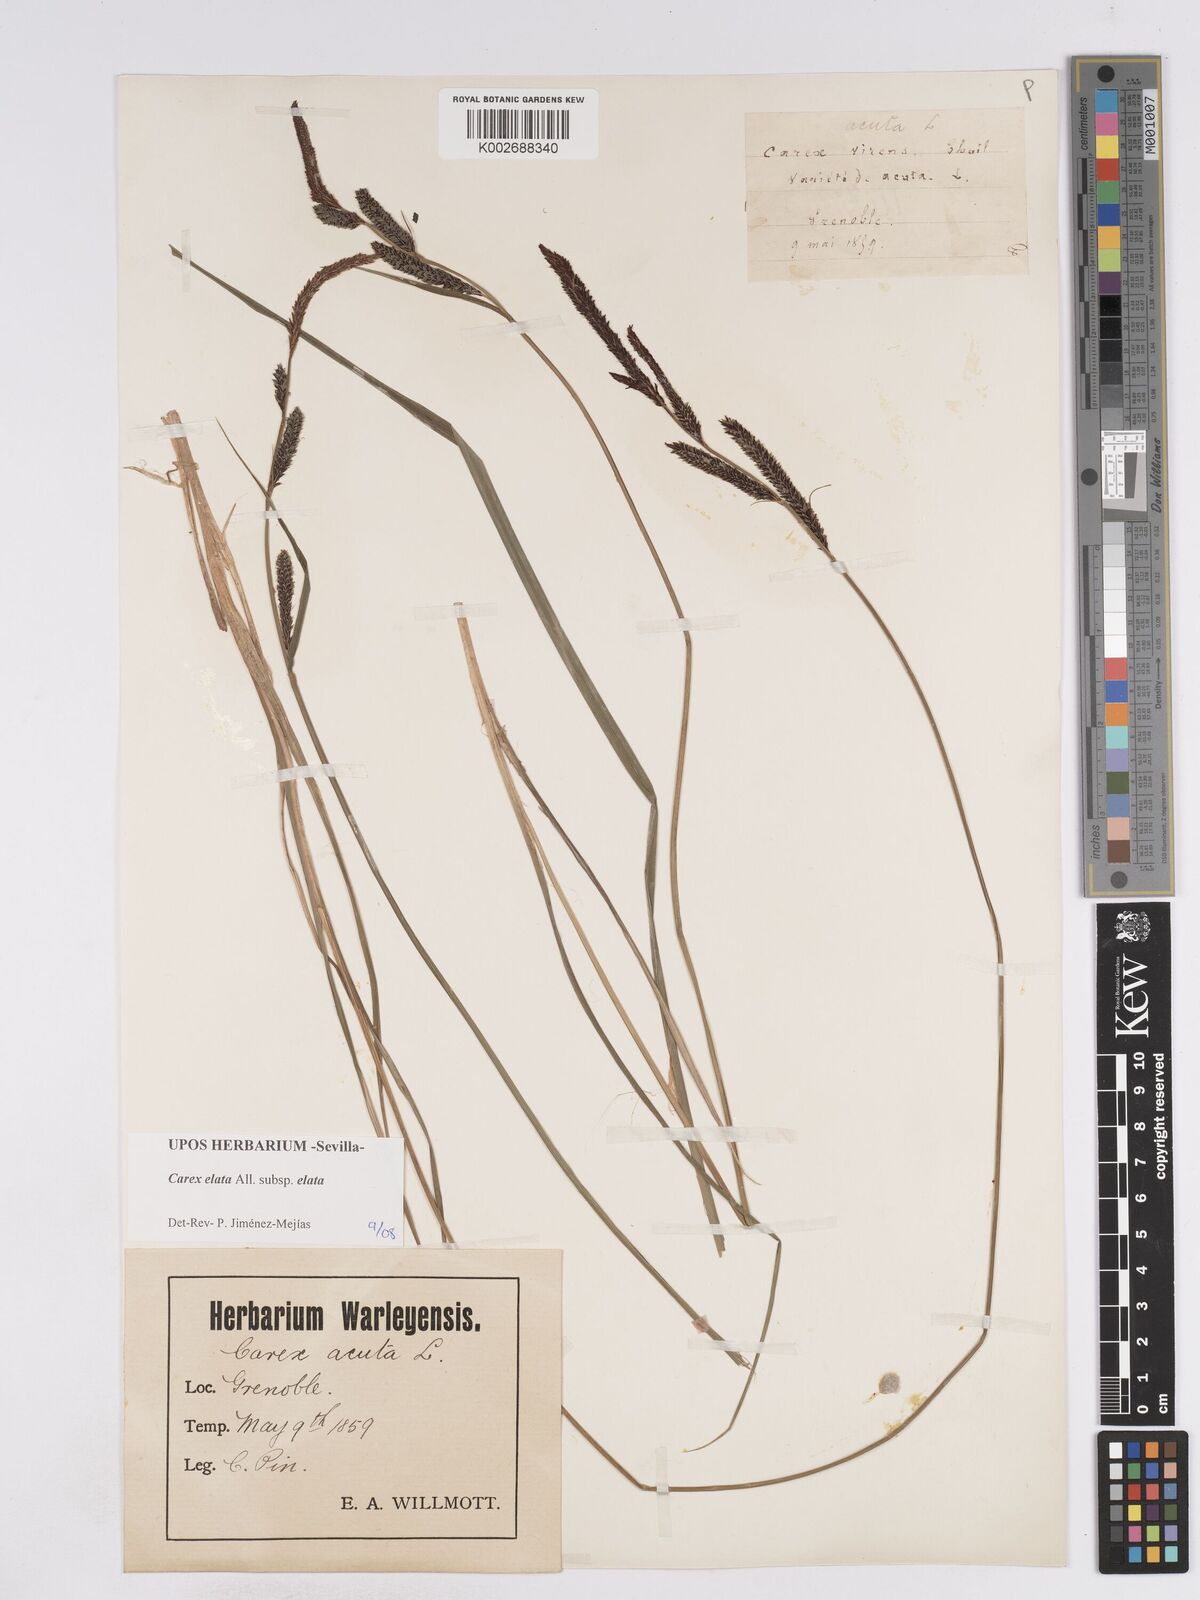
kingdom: Plantae
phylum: Tracheophyta
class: Liliopsida
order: Poales
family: Cyperaceae
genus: Carex
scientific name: Carex elata
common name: Tufted sedge
